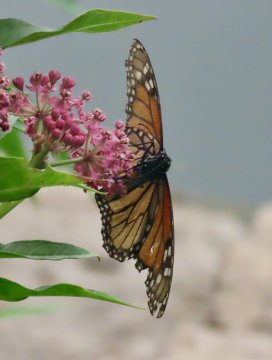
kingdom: Animalia
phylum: Arthropoda
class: Insecta
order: Lepidoptera
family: Nymphalidae
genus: Danaus
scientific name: Danaus plexippus
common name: Monarch
